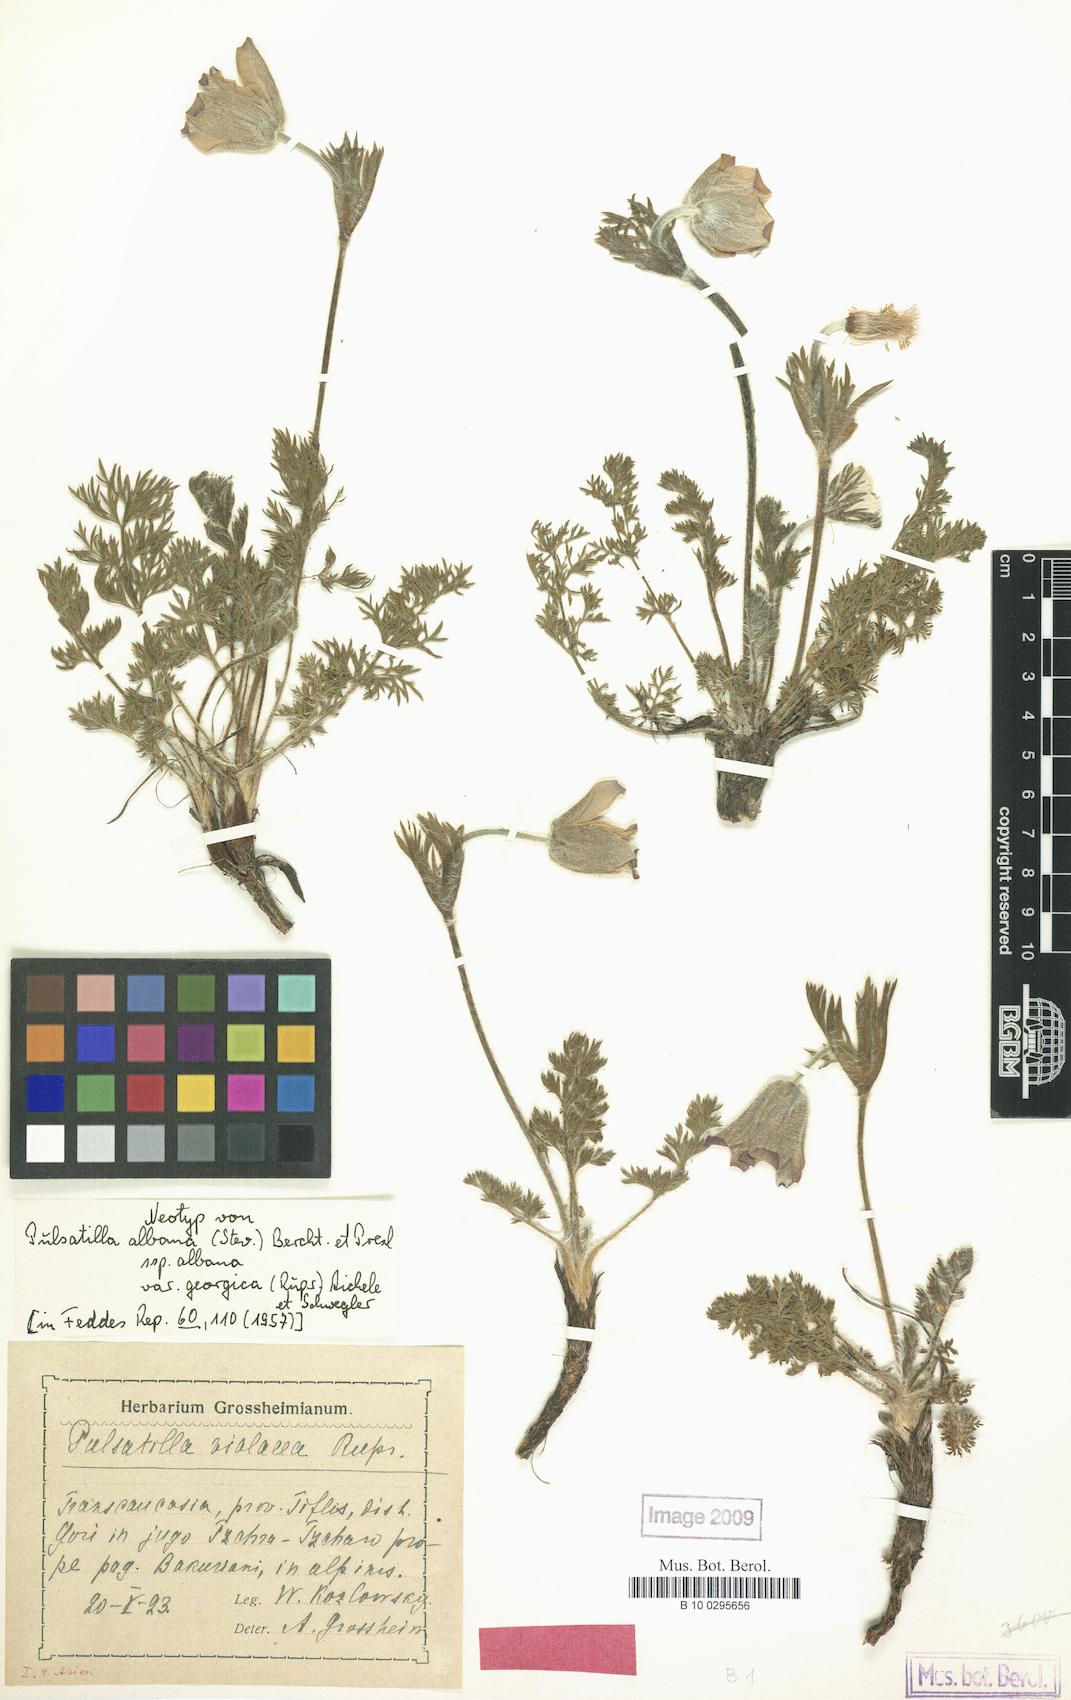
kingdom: Plantae
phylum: Tracheophyta
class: Magnoliopsida
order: Ranunculales
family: Ranunculaceae
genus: Pulsatilla
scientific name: Pulsatilla georgica
